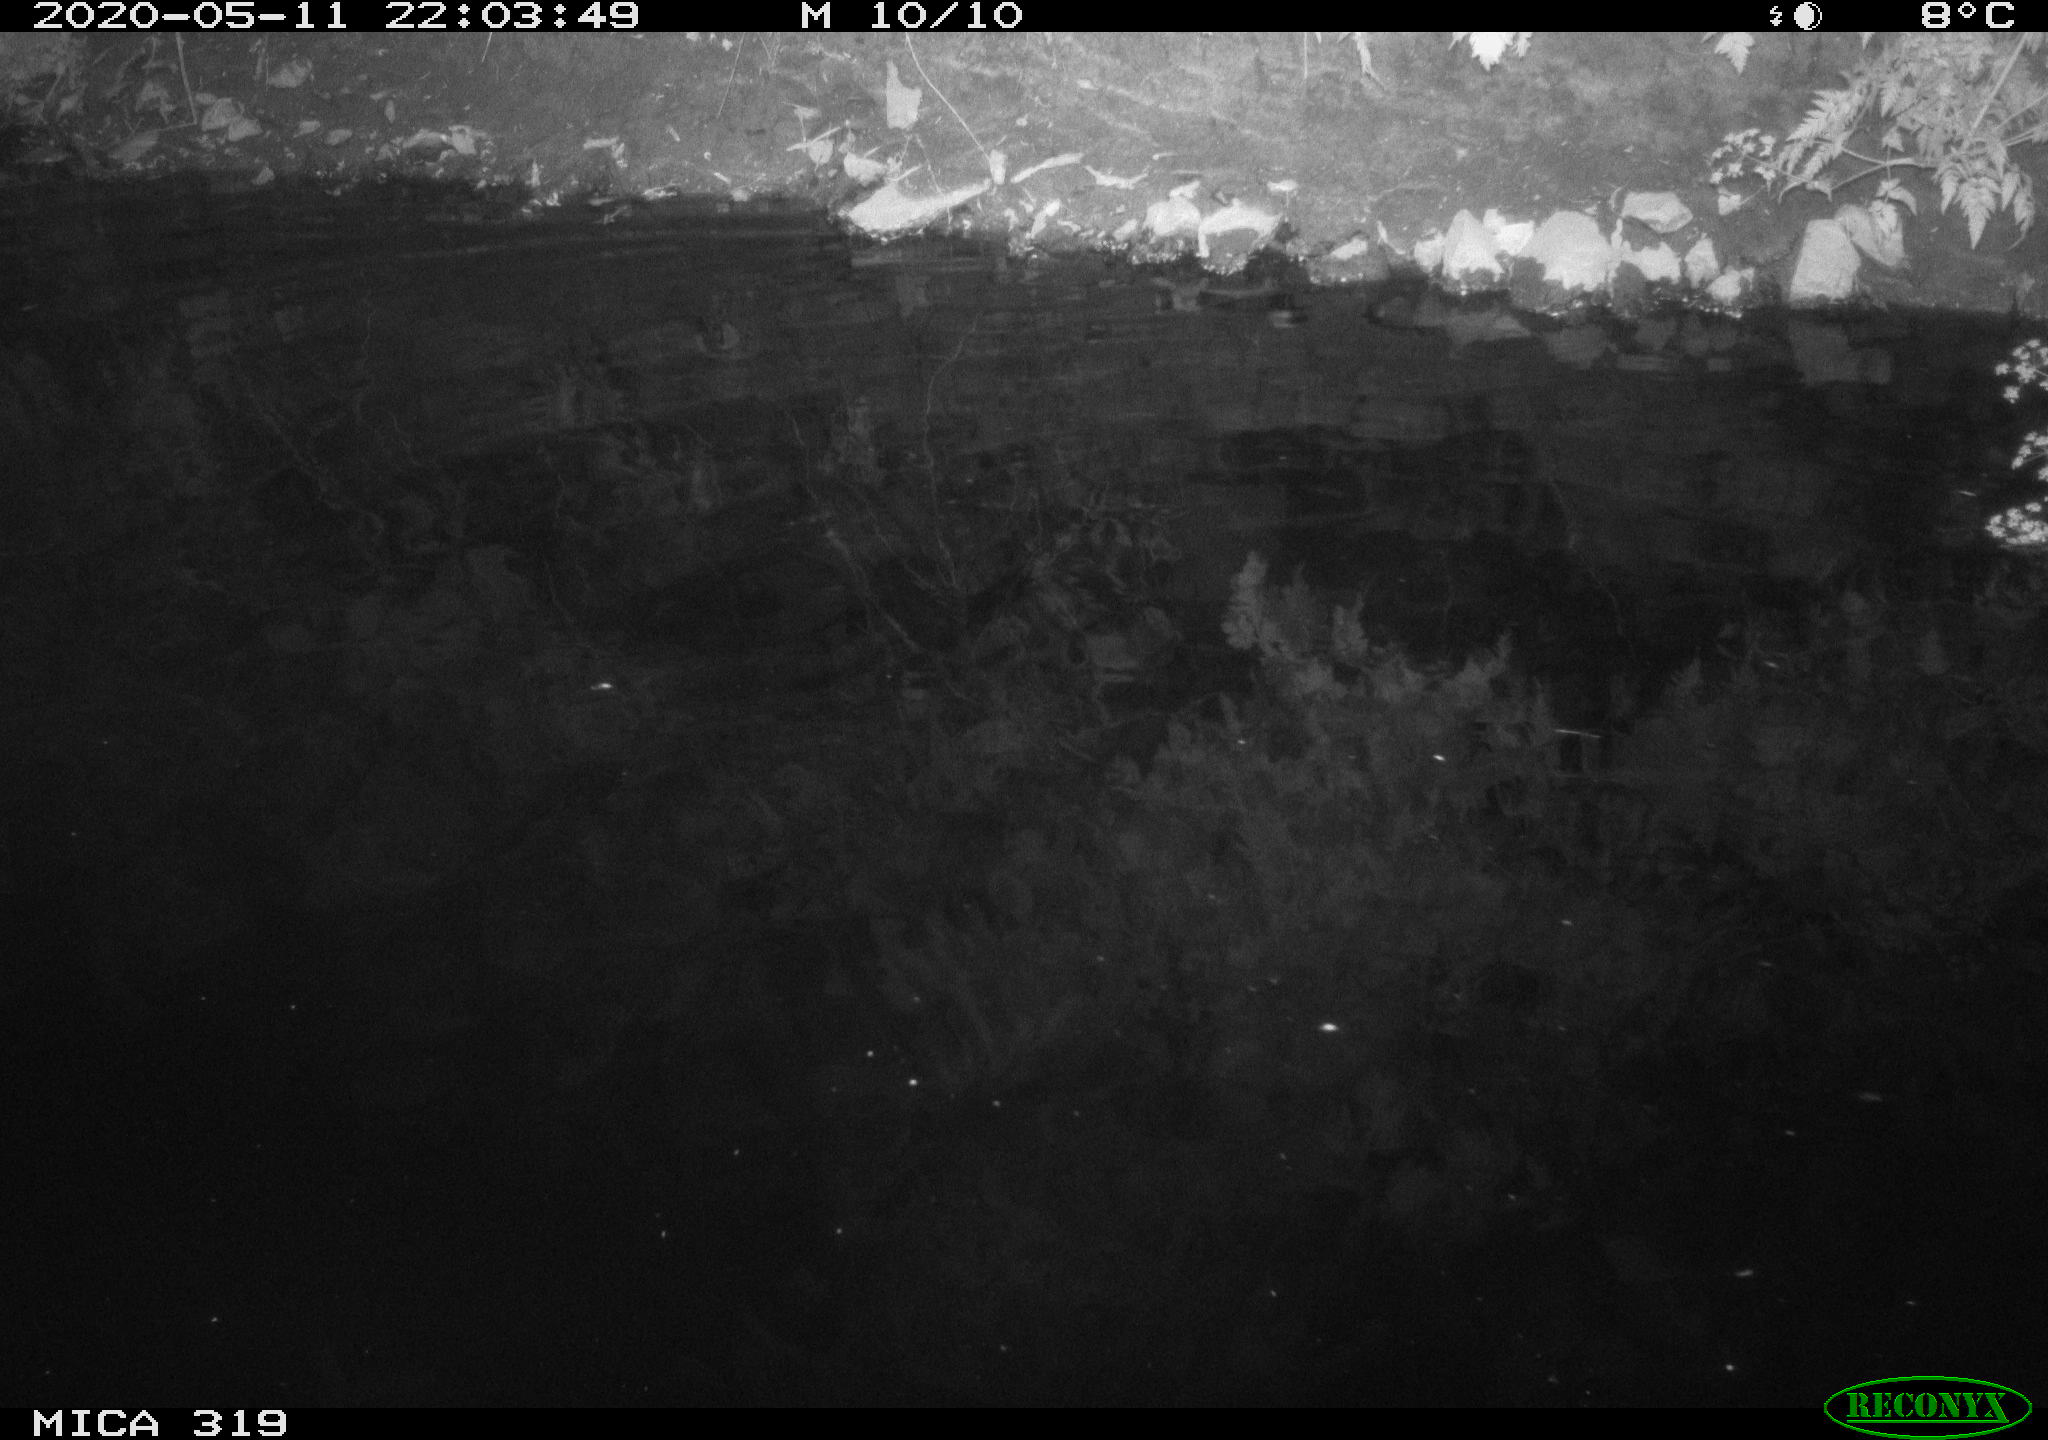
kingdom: Animalia
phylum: Chordata
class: Aves
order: Anseriformes
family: Anatidae
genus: Anas
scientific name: Anas platyrhynchos
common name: Mallard
